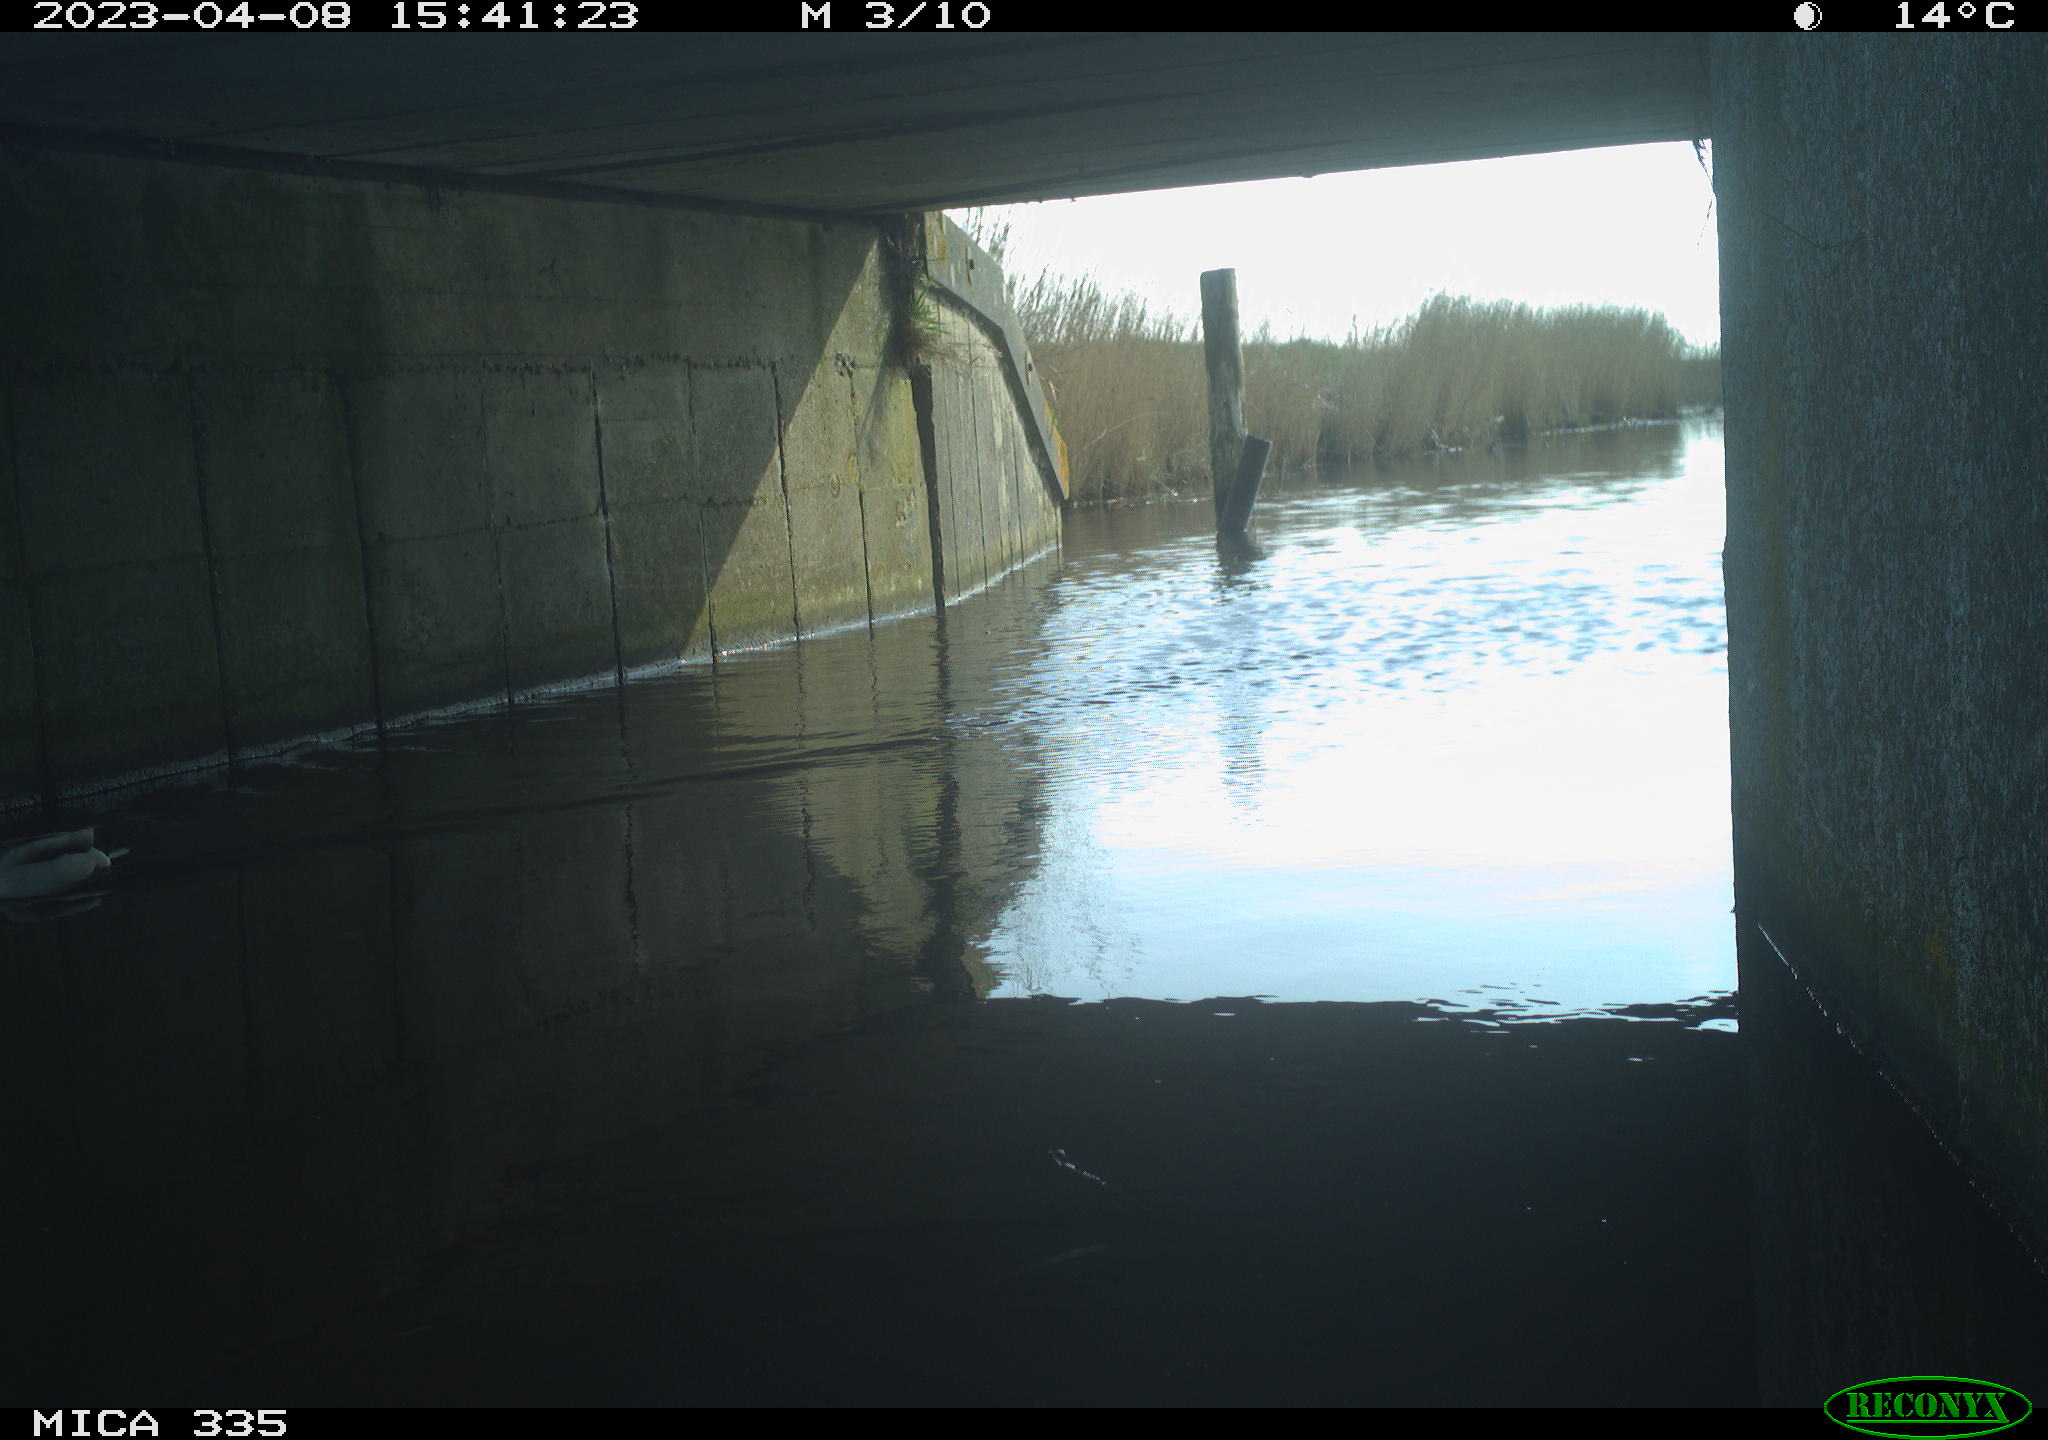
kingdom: Animalia
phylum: Chordata
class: Aves
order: Anseriformes
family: Anatidae
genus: Anas
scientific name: Anas
